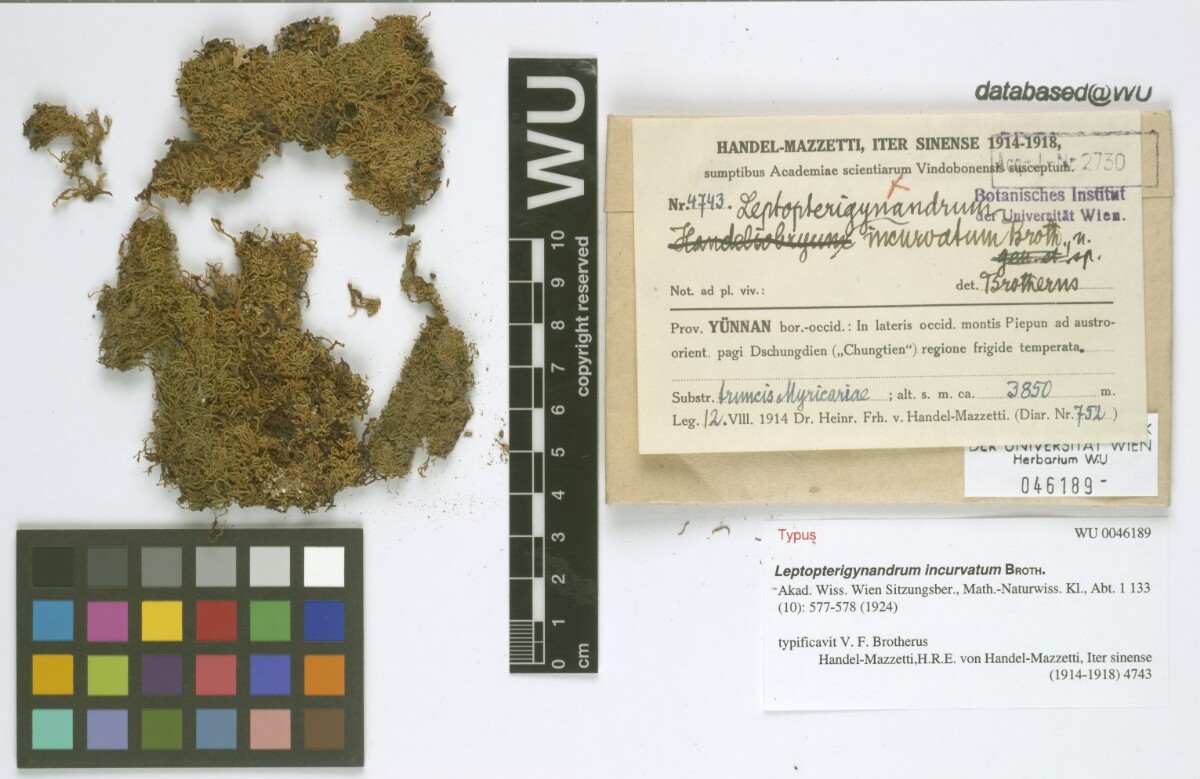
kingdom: Plantae
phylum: Bryophyta
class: Bryopsida
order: Hypnales
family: Taxiphyllaceae
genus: Leptopterigynandrum
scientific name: Leptopterigynandrum incurvatum
